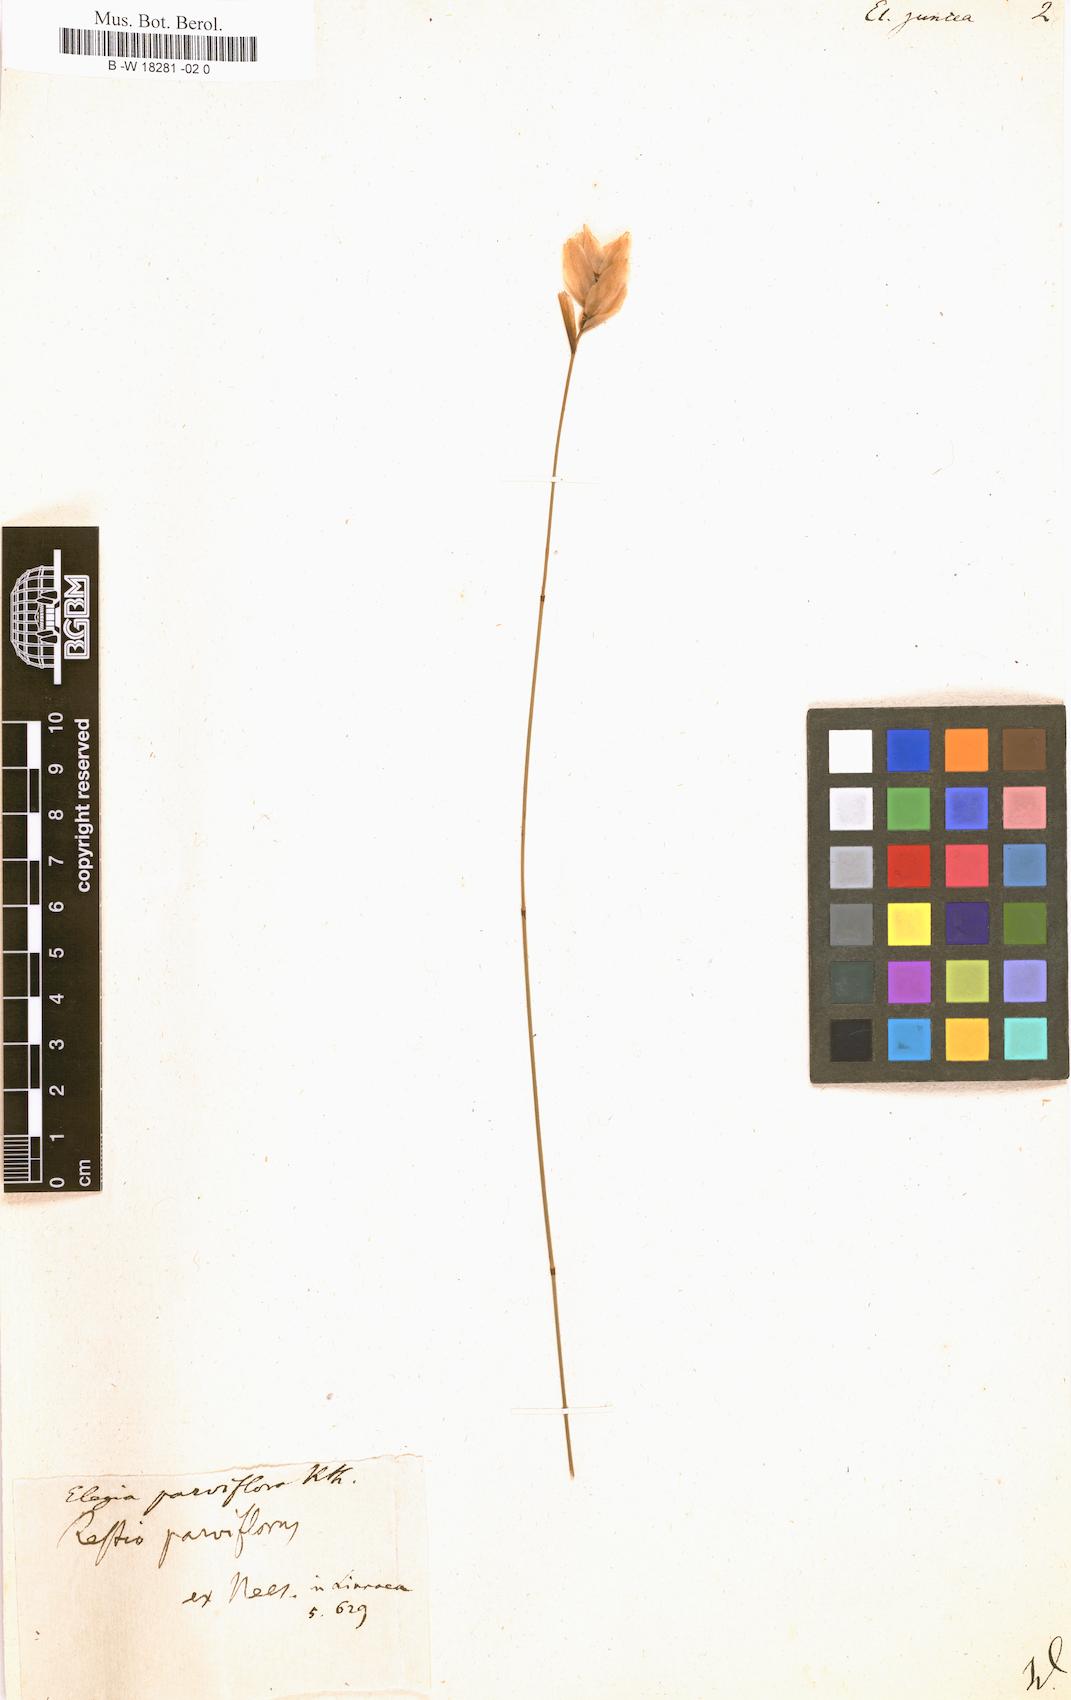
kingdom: Plantae
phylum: Tracheophyta
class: Liliopsida
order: Poales
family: Restionaceae
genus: Elegia
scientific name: Elegia juncea
